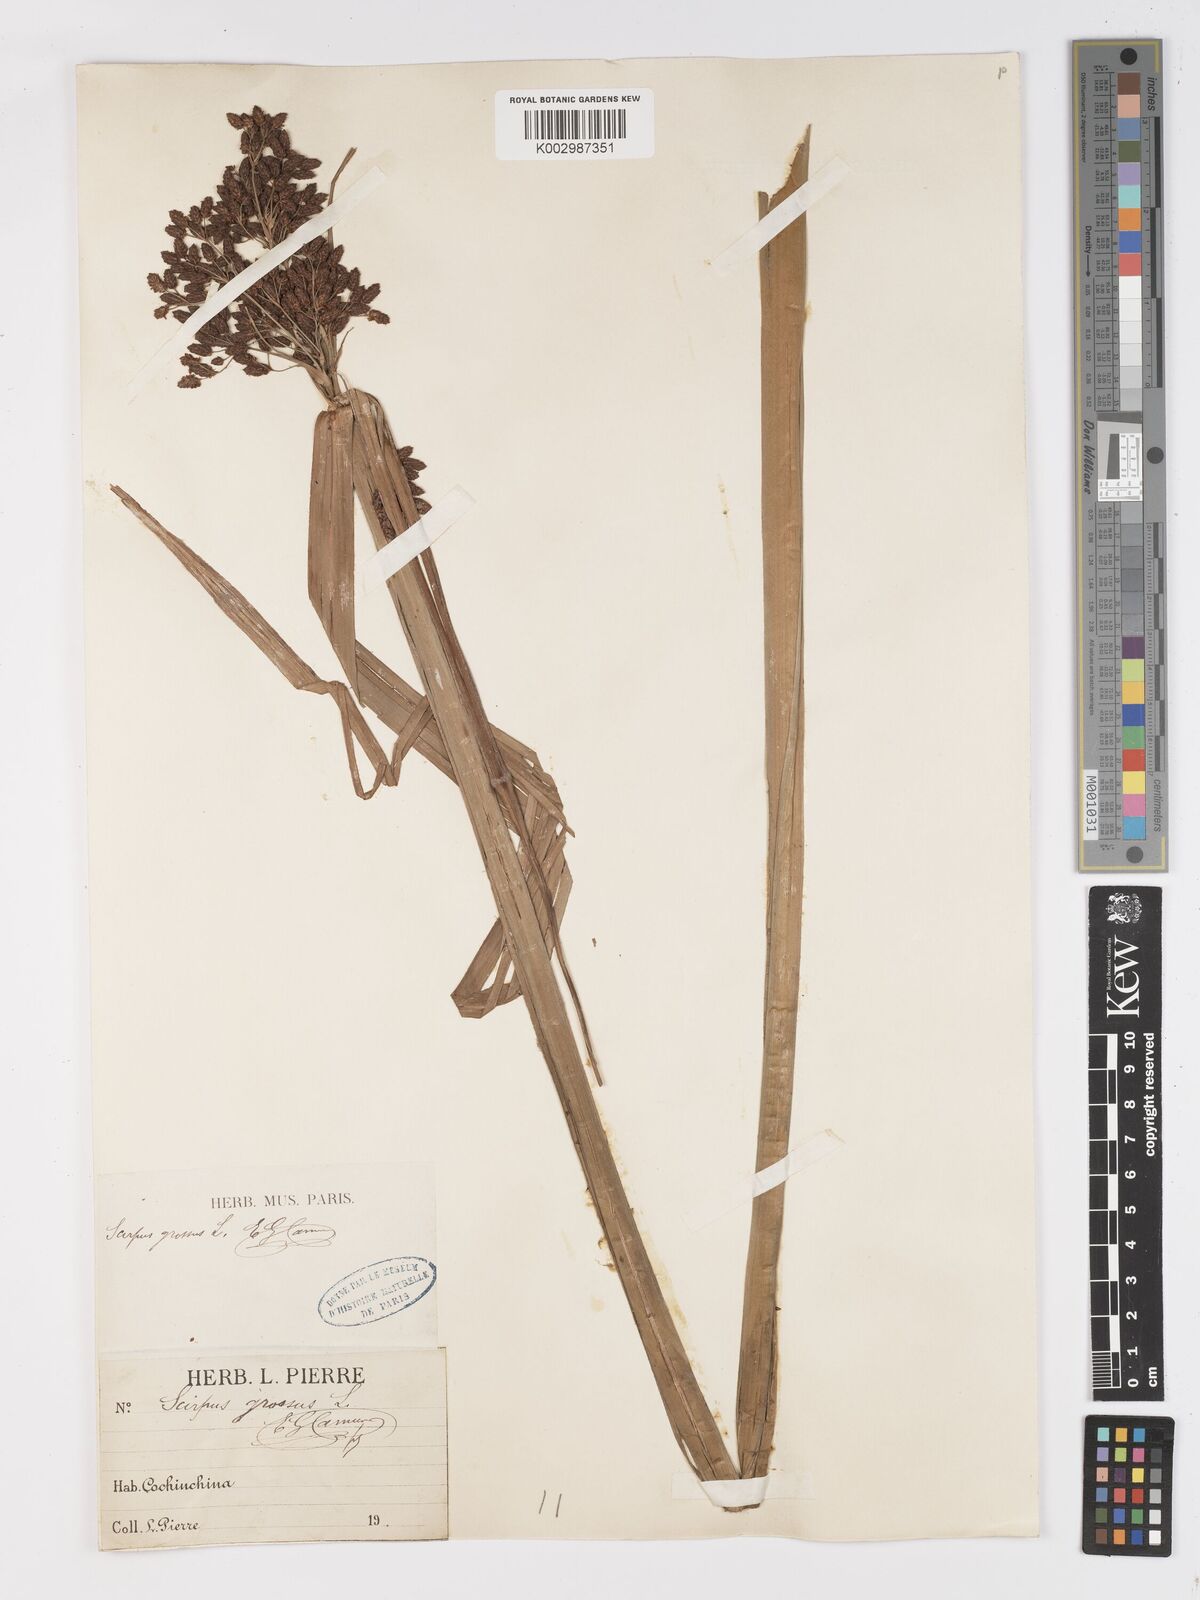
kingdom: Plantae
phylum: Tracheophyta
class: Liliopsida
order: Poales
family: Cyperaceae
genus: Actinoscirpus
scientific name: Actinoscirpus grossus
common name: Giant bur rush
